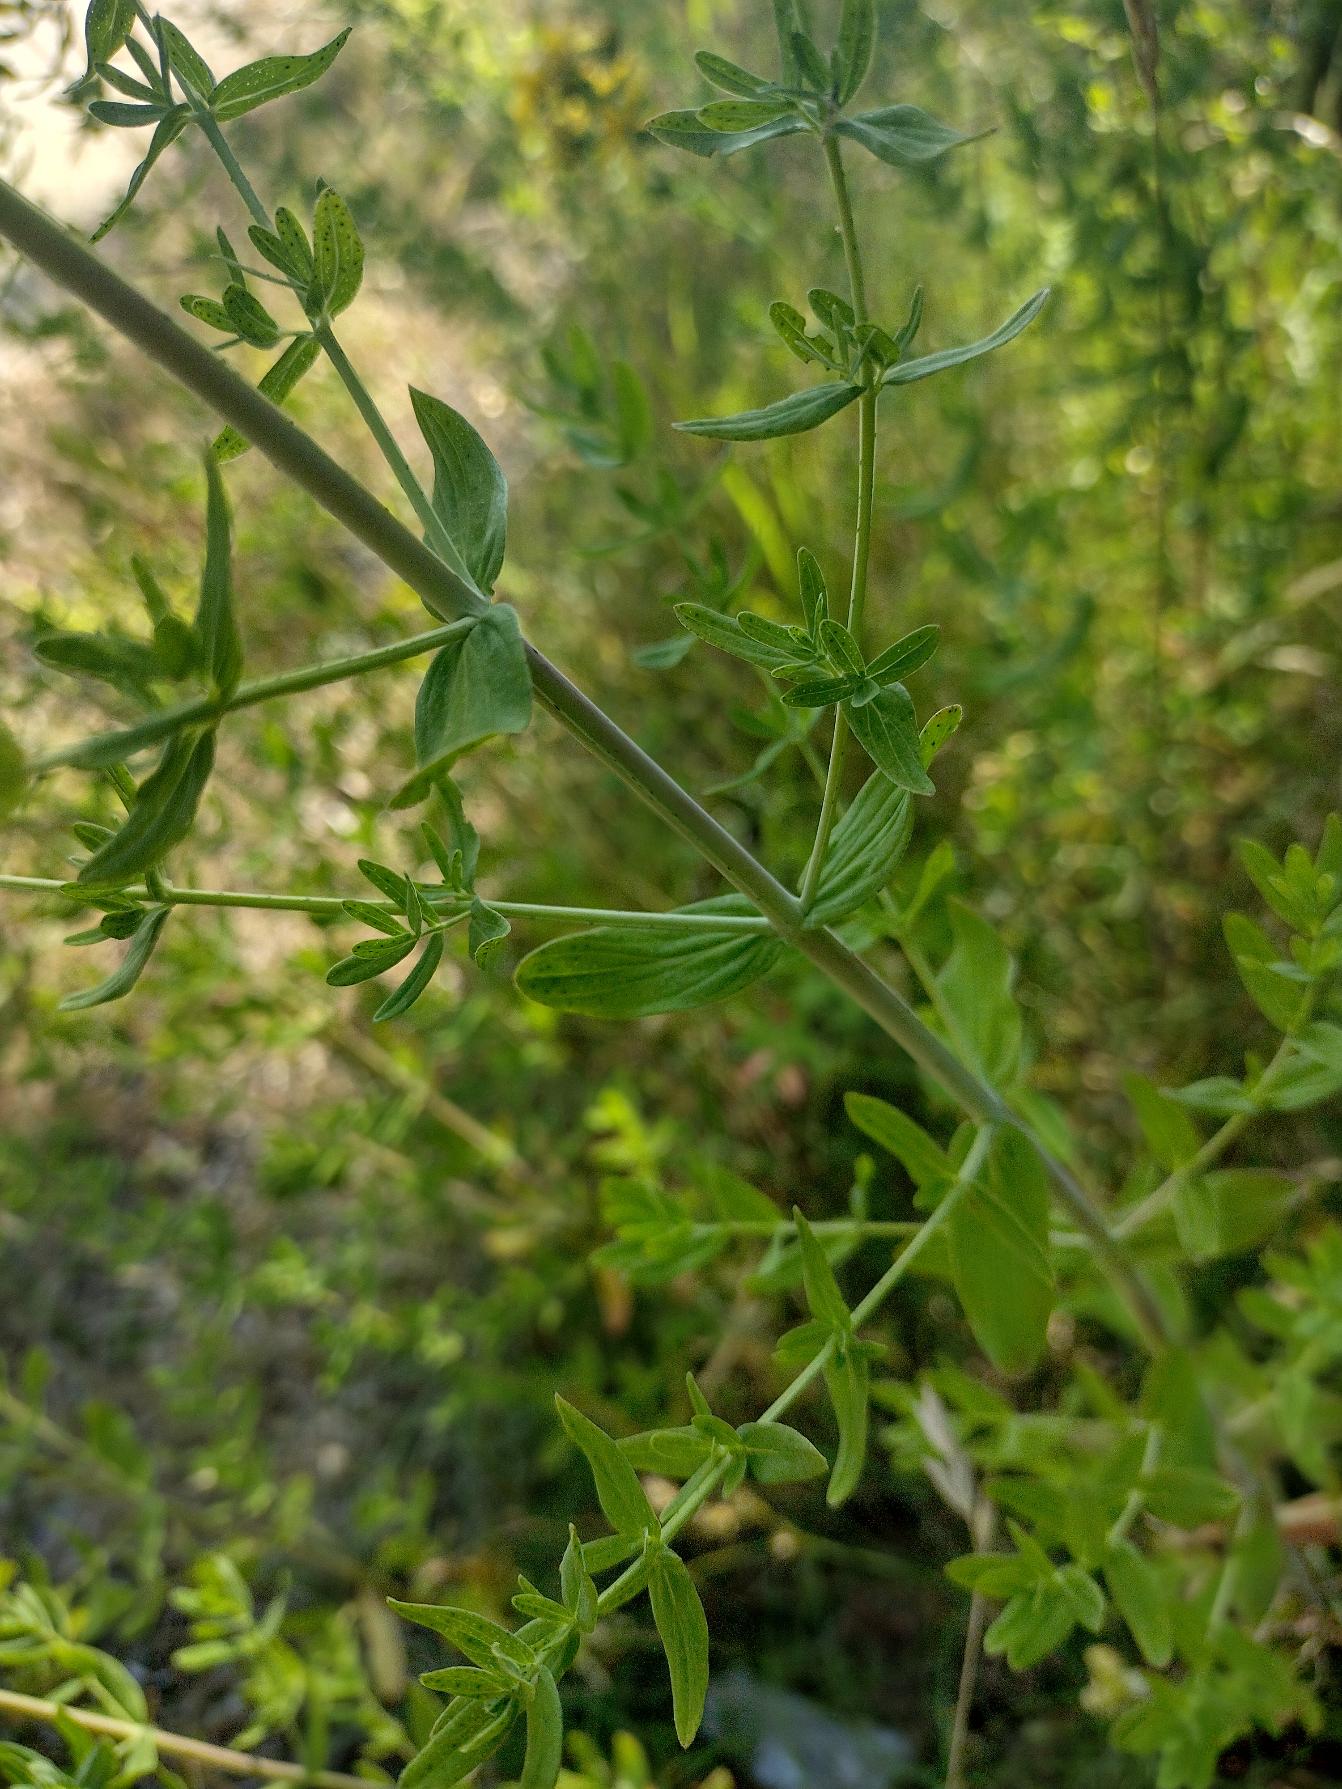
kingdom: Plantae
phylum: Tracheophyta
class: Magnoliopsida
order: Malpighiales
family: Hypericaceae
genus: Hypericum
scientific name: Hypericum perforatum
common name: Prikbladet perikon
